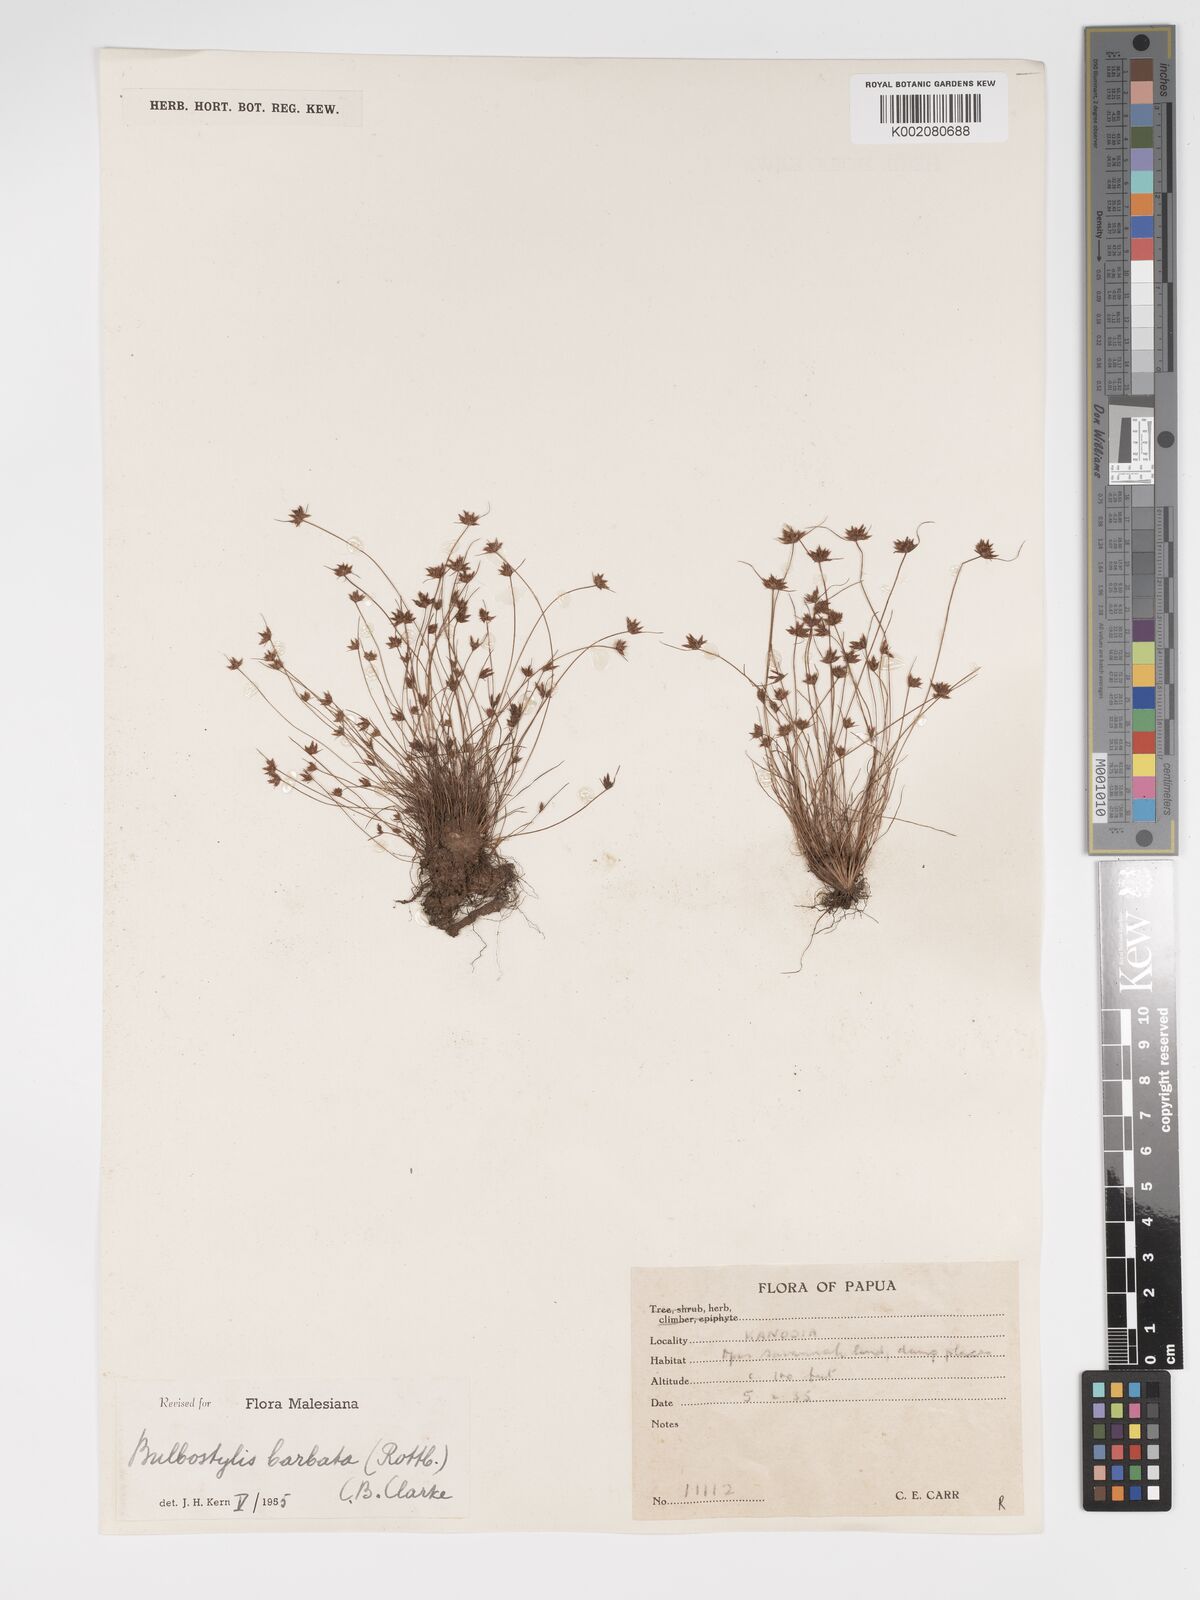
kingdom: Plantae
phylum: Tracheophyta
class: Liliopsida
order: Poales
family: Cyperaceae
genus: Bulbostylis
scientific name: Bulbostylis barbata
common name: Watergrass
